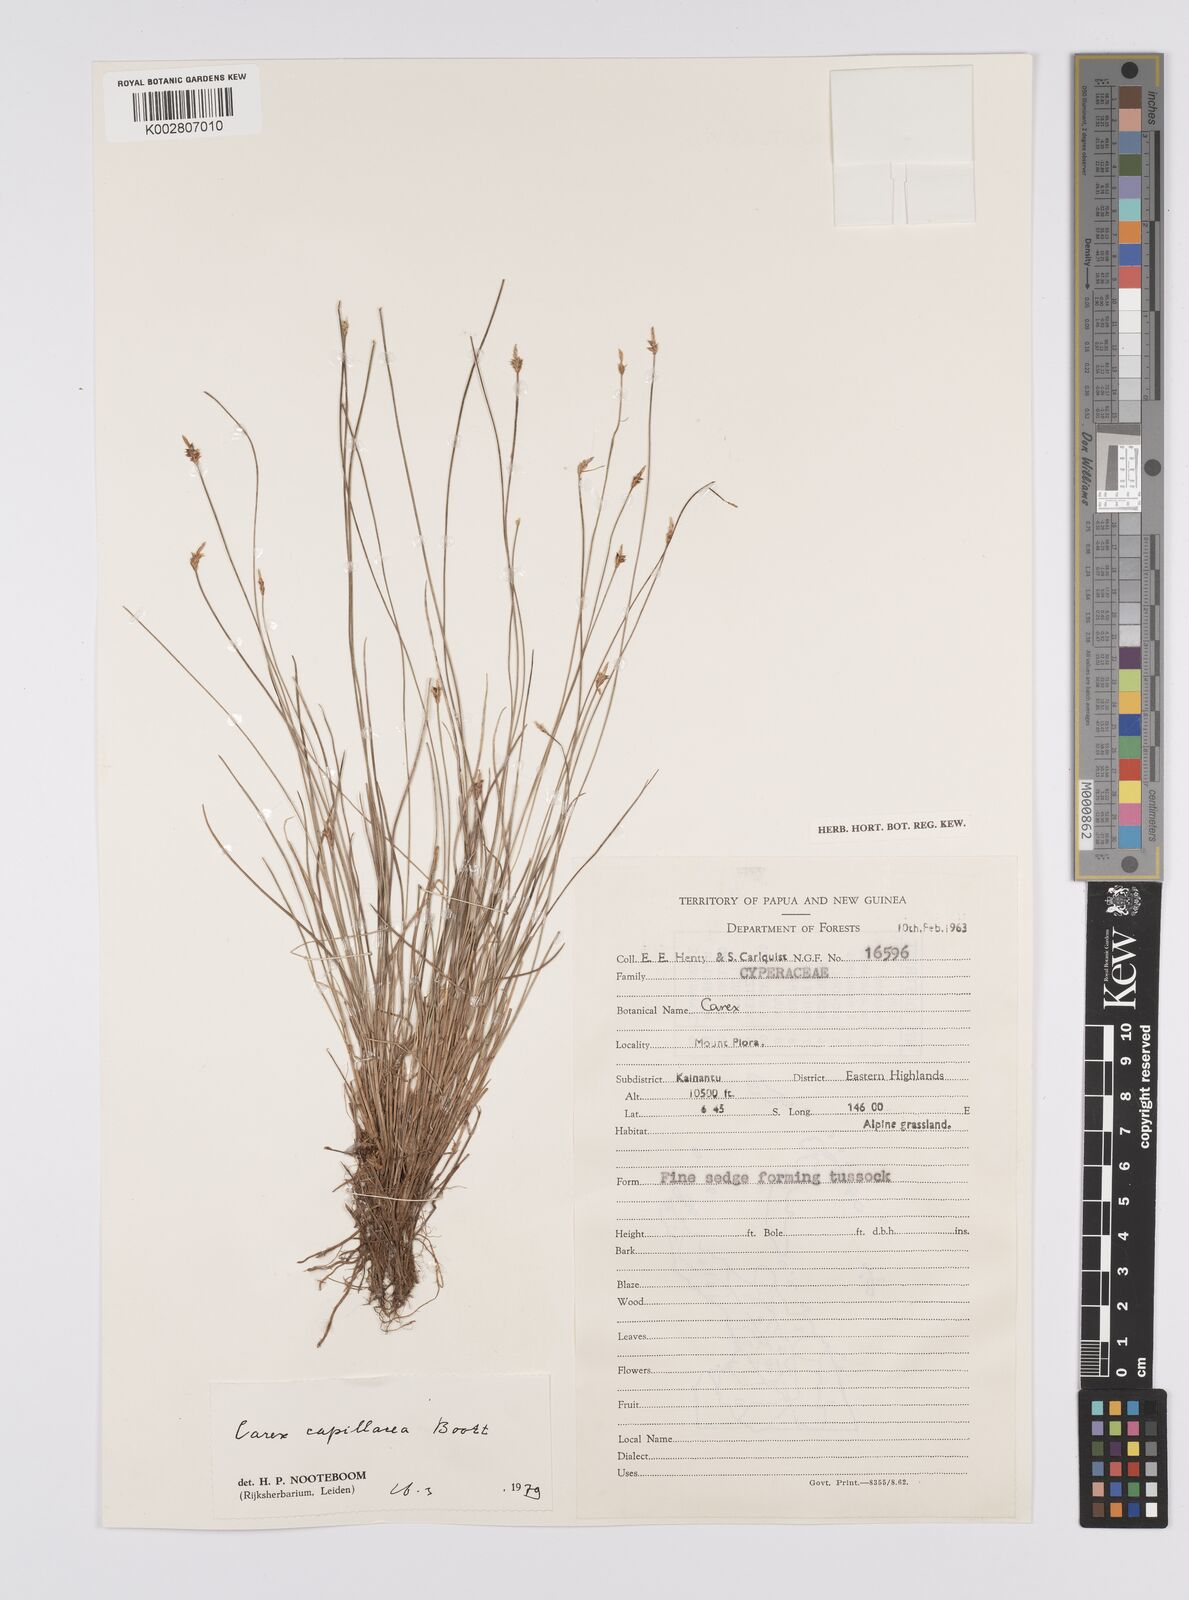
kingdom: Plantae
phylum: Tracheophyta
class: Liliopsida
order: Poales
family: Cyperaceae
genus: Carex
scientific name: Carex capillacea
